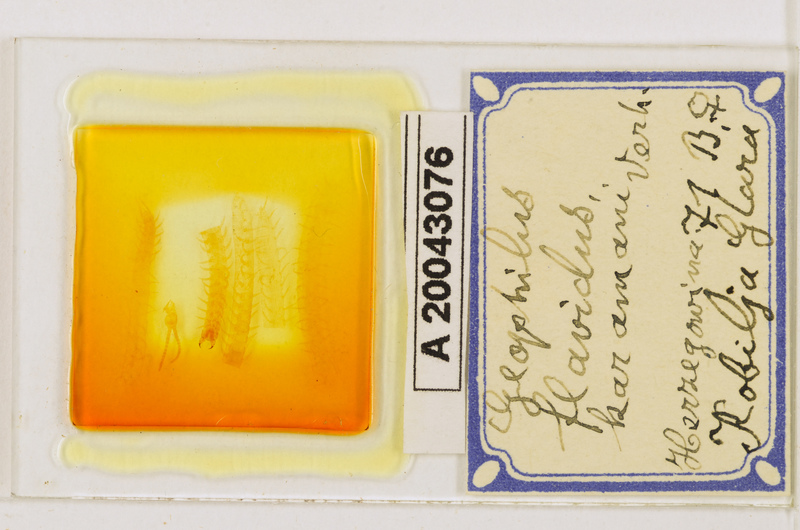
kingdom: Animalia
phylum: Arthropoda
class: Chilopoda
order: Geophilomorpha
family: Geophilidae
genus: Clinopodes
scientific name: Clinopodes flavidus
